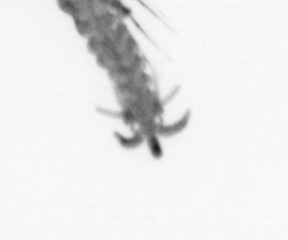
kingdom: Animalia
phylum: Annelida
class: Polychaeta
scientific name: Polychaeta
